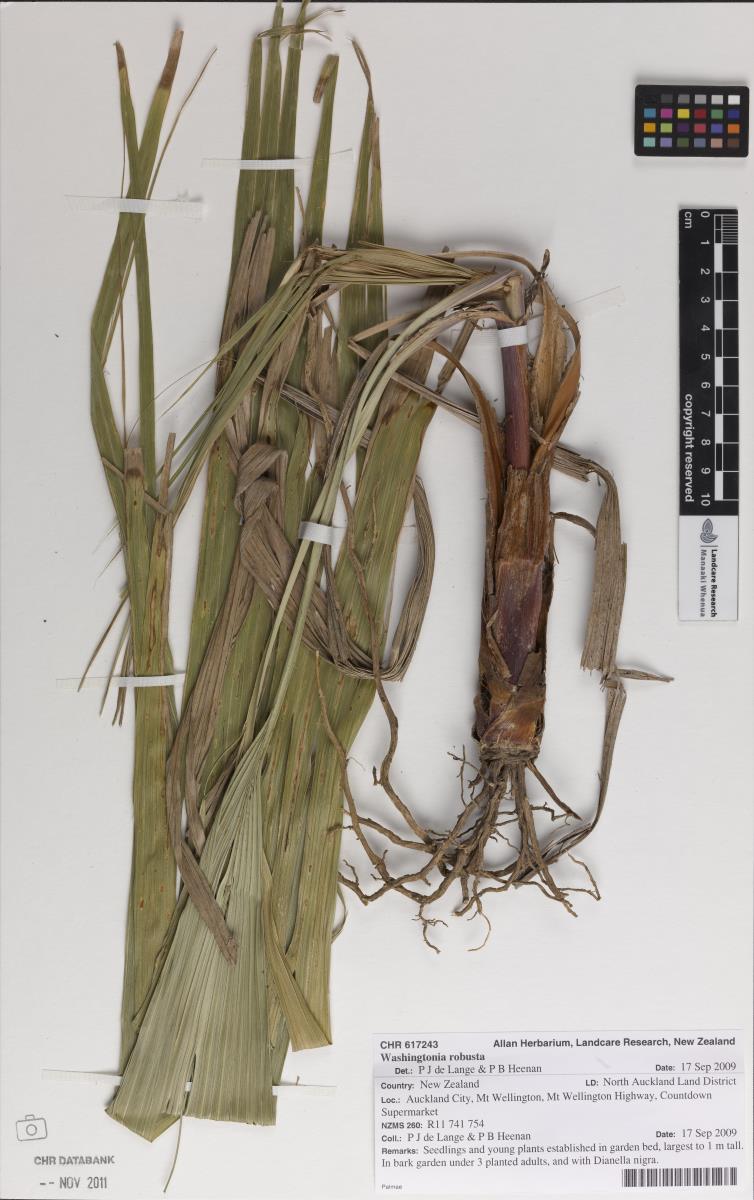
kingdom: Plantae
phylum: Tracheophyta
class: Liliopsida
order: Arecales
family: Arecaceae
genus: Washingtonia
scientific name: Washingtonia robusta
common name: Mexican fan palm
